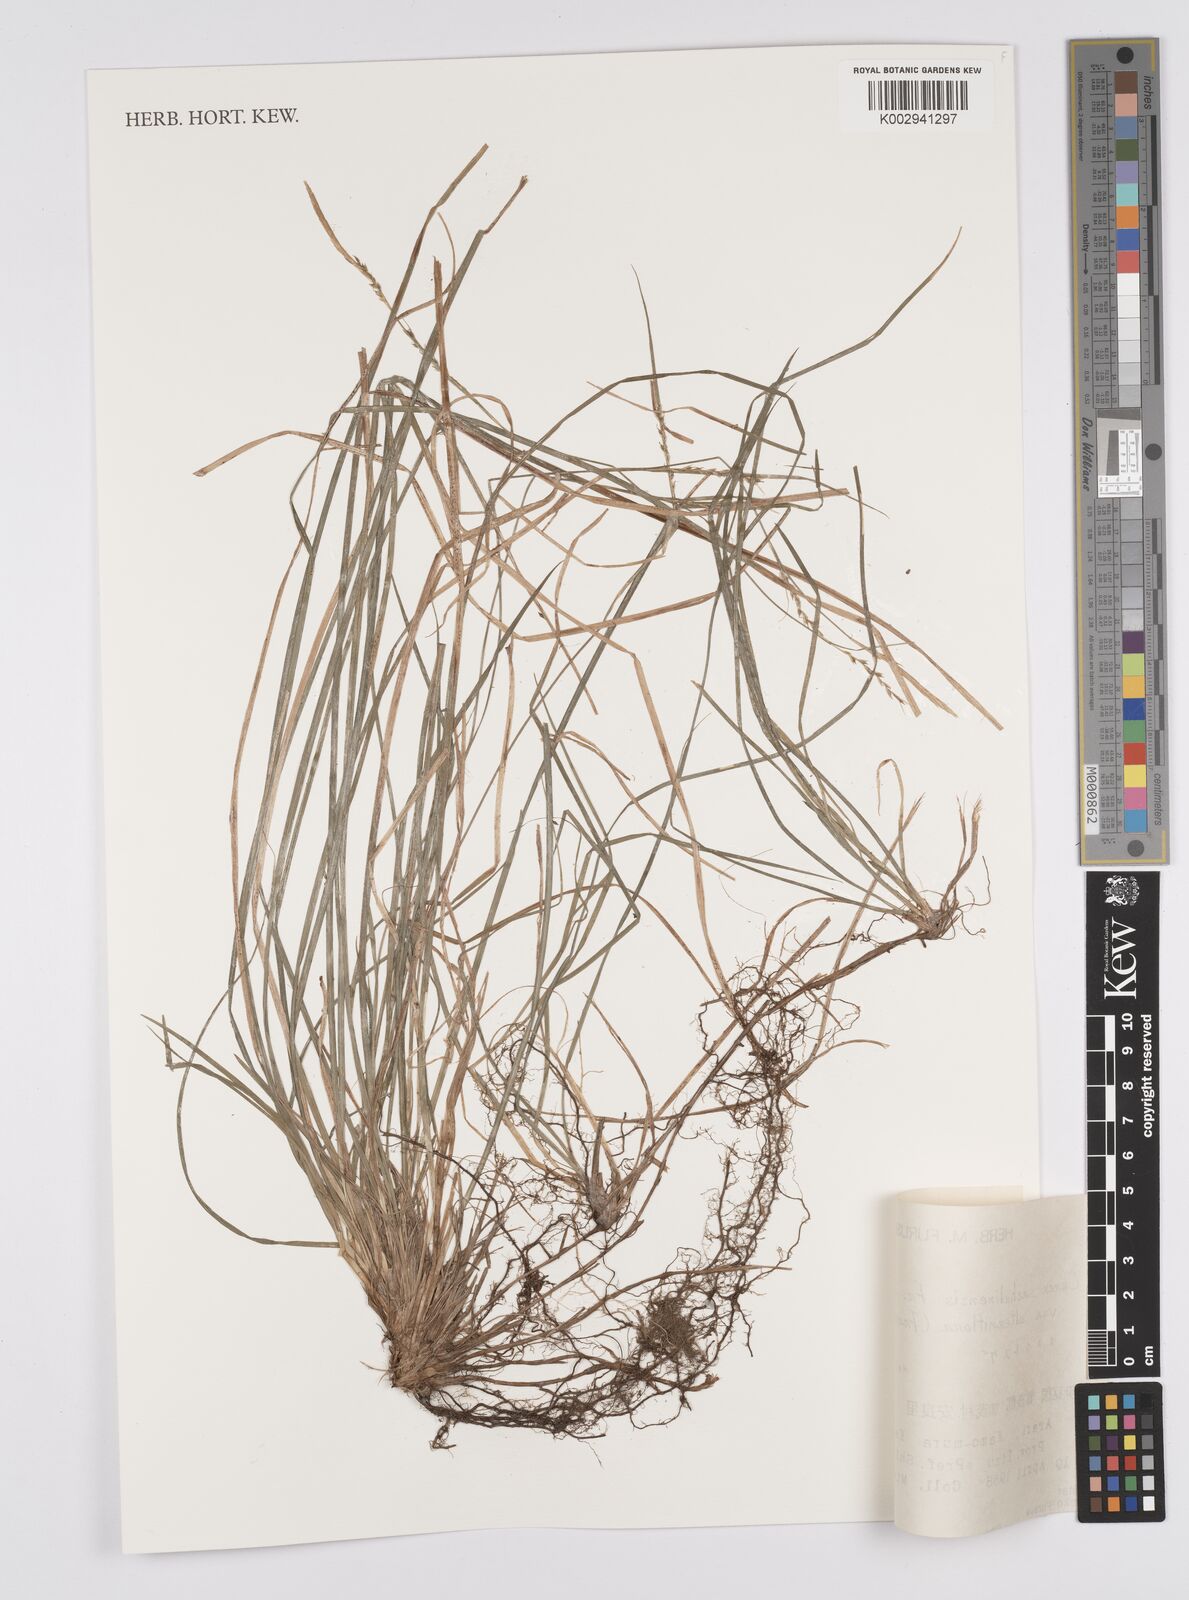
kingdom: Plantae
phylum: Tracheophyta
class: Liliopsida
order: Poales
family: Cyperaceae
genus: Carex
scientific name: Carex pisiformis
